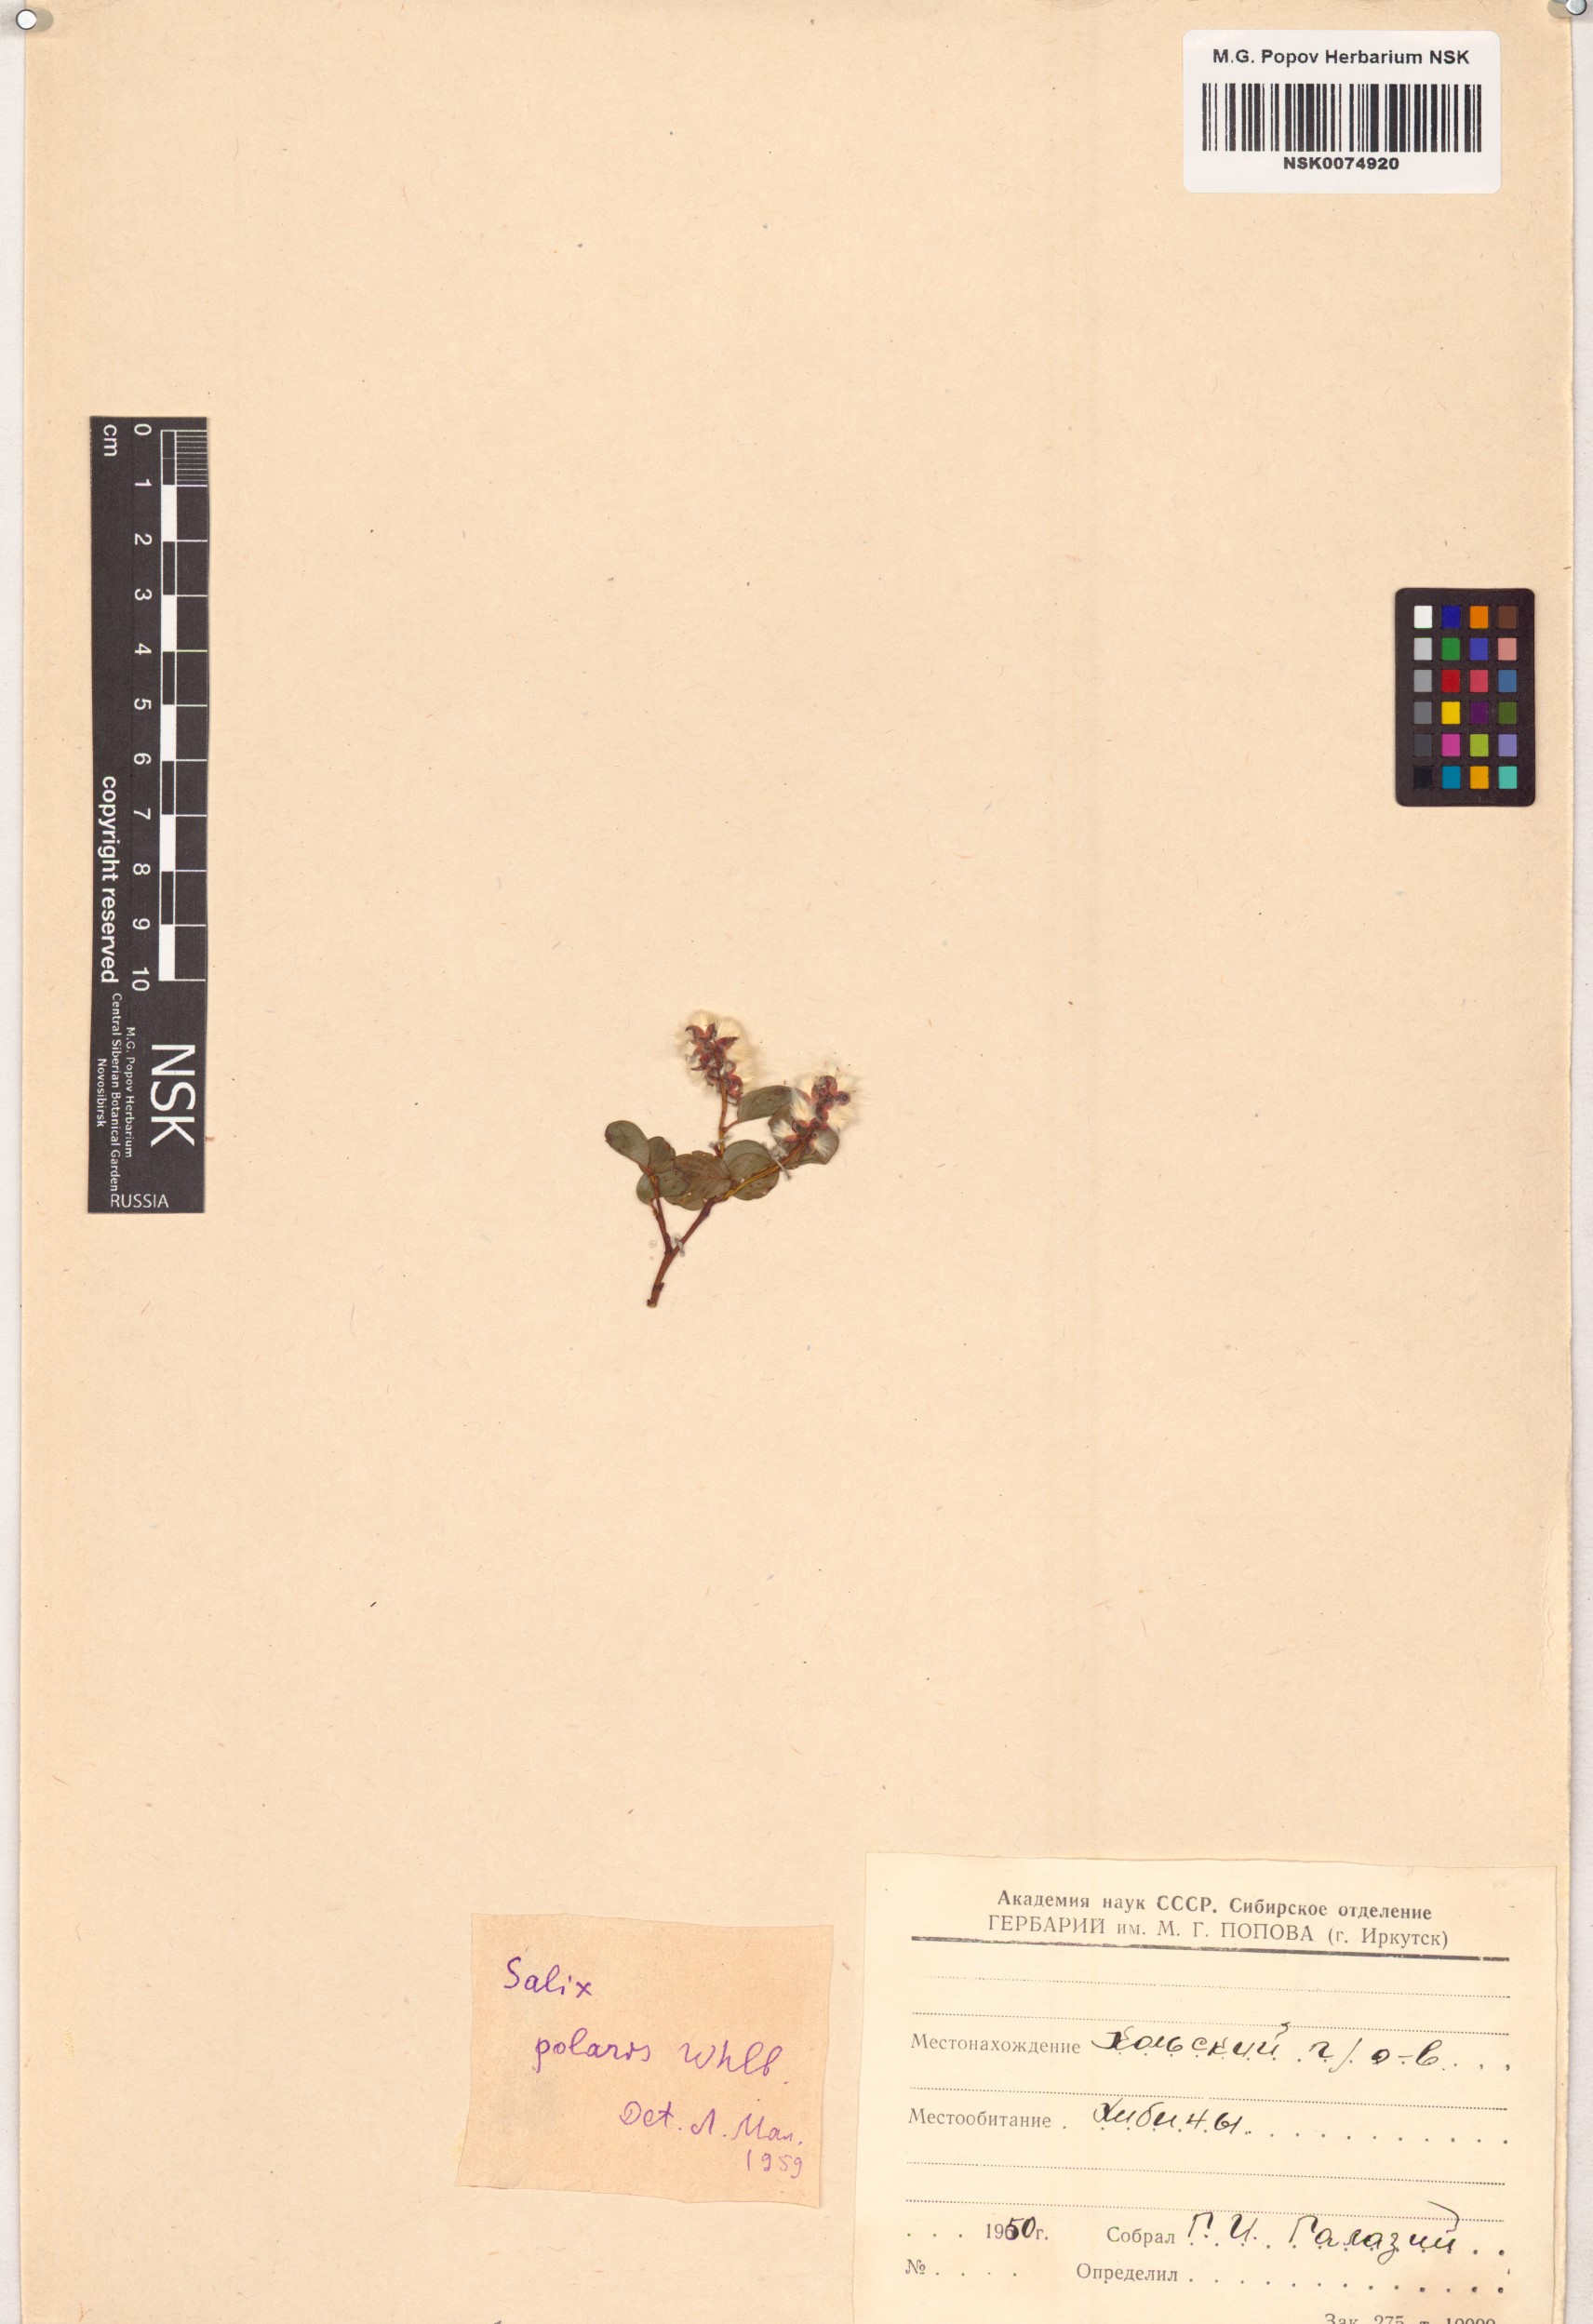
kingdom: Plantae
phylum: Tracheophyta
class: Magnoliopsida
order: Malpighiales
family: Salicaceae
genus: Salix
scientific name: Salix polaris
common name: Polar willow
